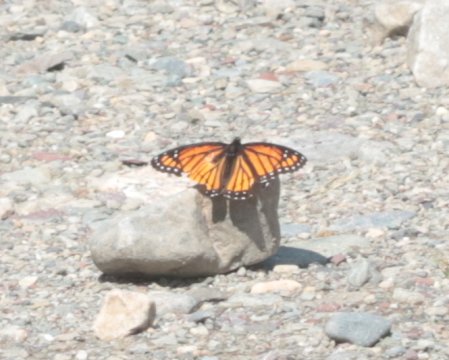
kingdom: Animalia
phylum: Arthropoda
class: Insecta
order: Lepidoptera
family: Nymphalidae
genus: Limenitis
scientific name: Limenitis archippus
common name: Viceroy
